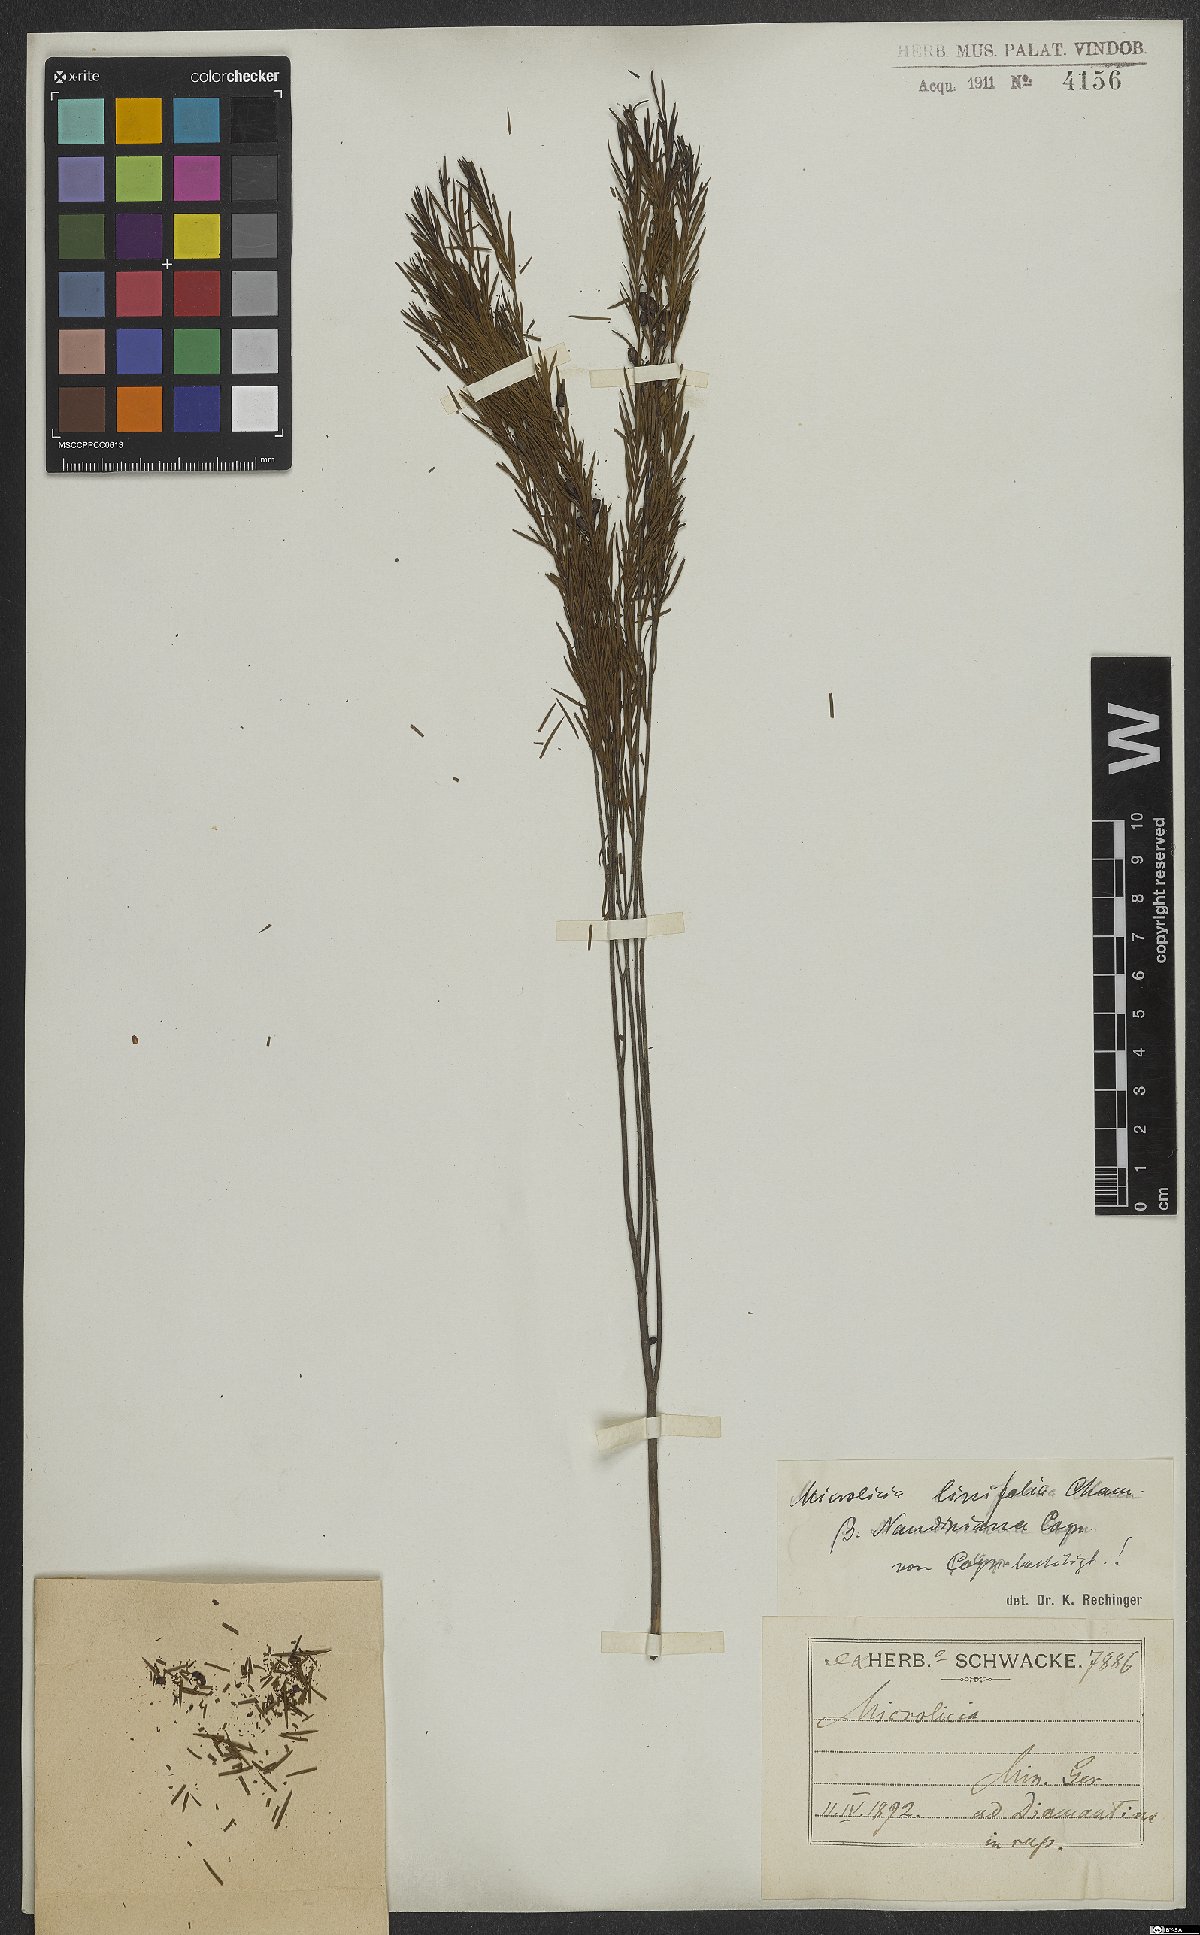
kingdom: Plantae
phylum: Tracheophyta
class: Magnoliopsida
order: Myrtales
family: Melastomataceae
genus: Microlicia
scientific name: Microlicia linifolia
